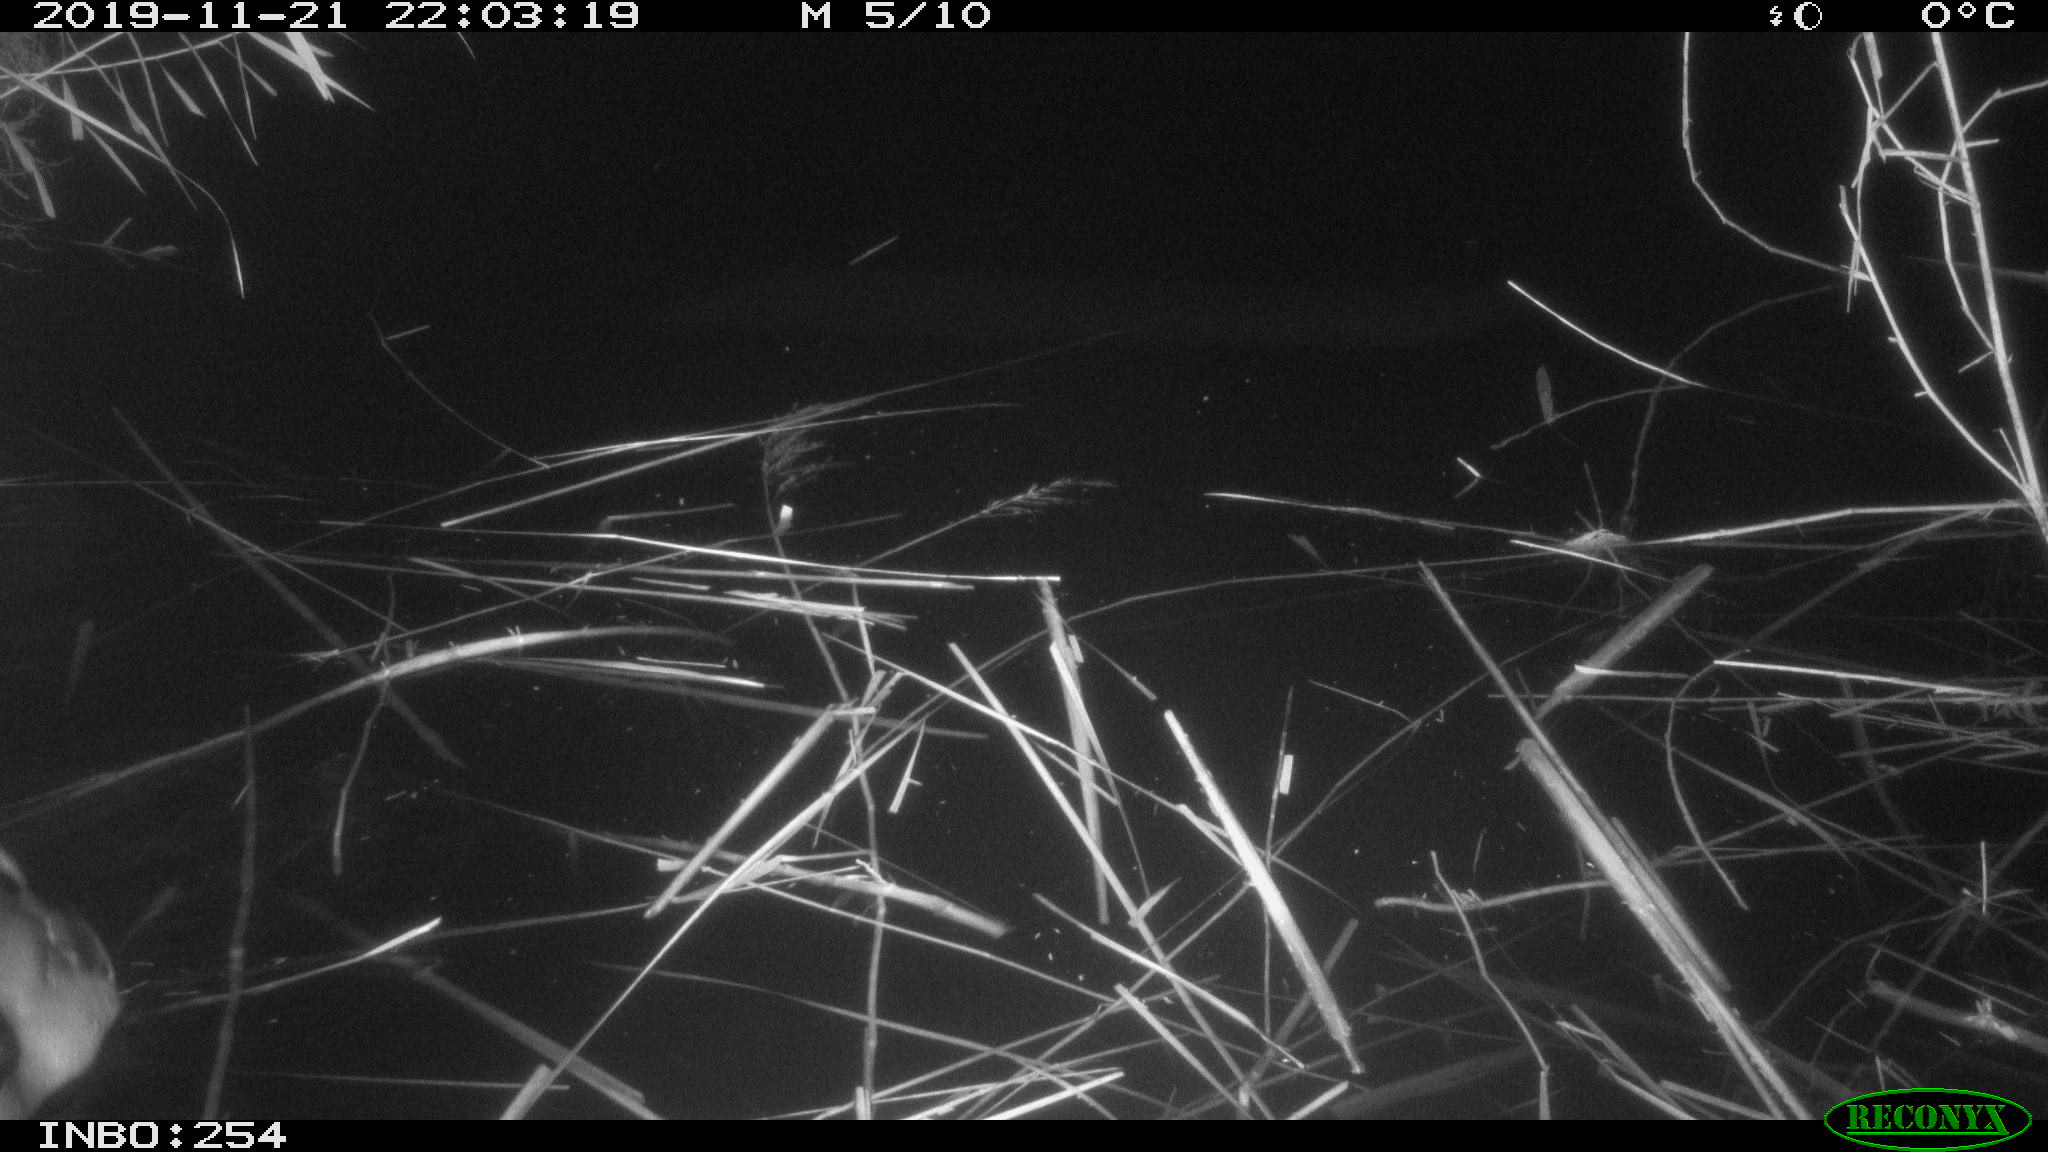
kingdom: Animalia
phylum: Chordata
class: Aves
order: Anseriformes
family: Anatidae
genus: Anas
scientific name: Anas platyrhynchos
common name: Mallard
